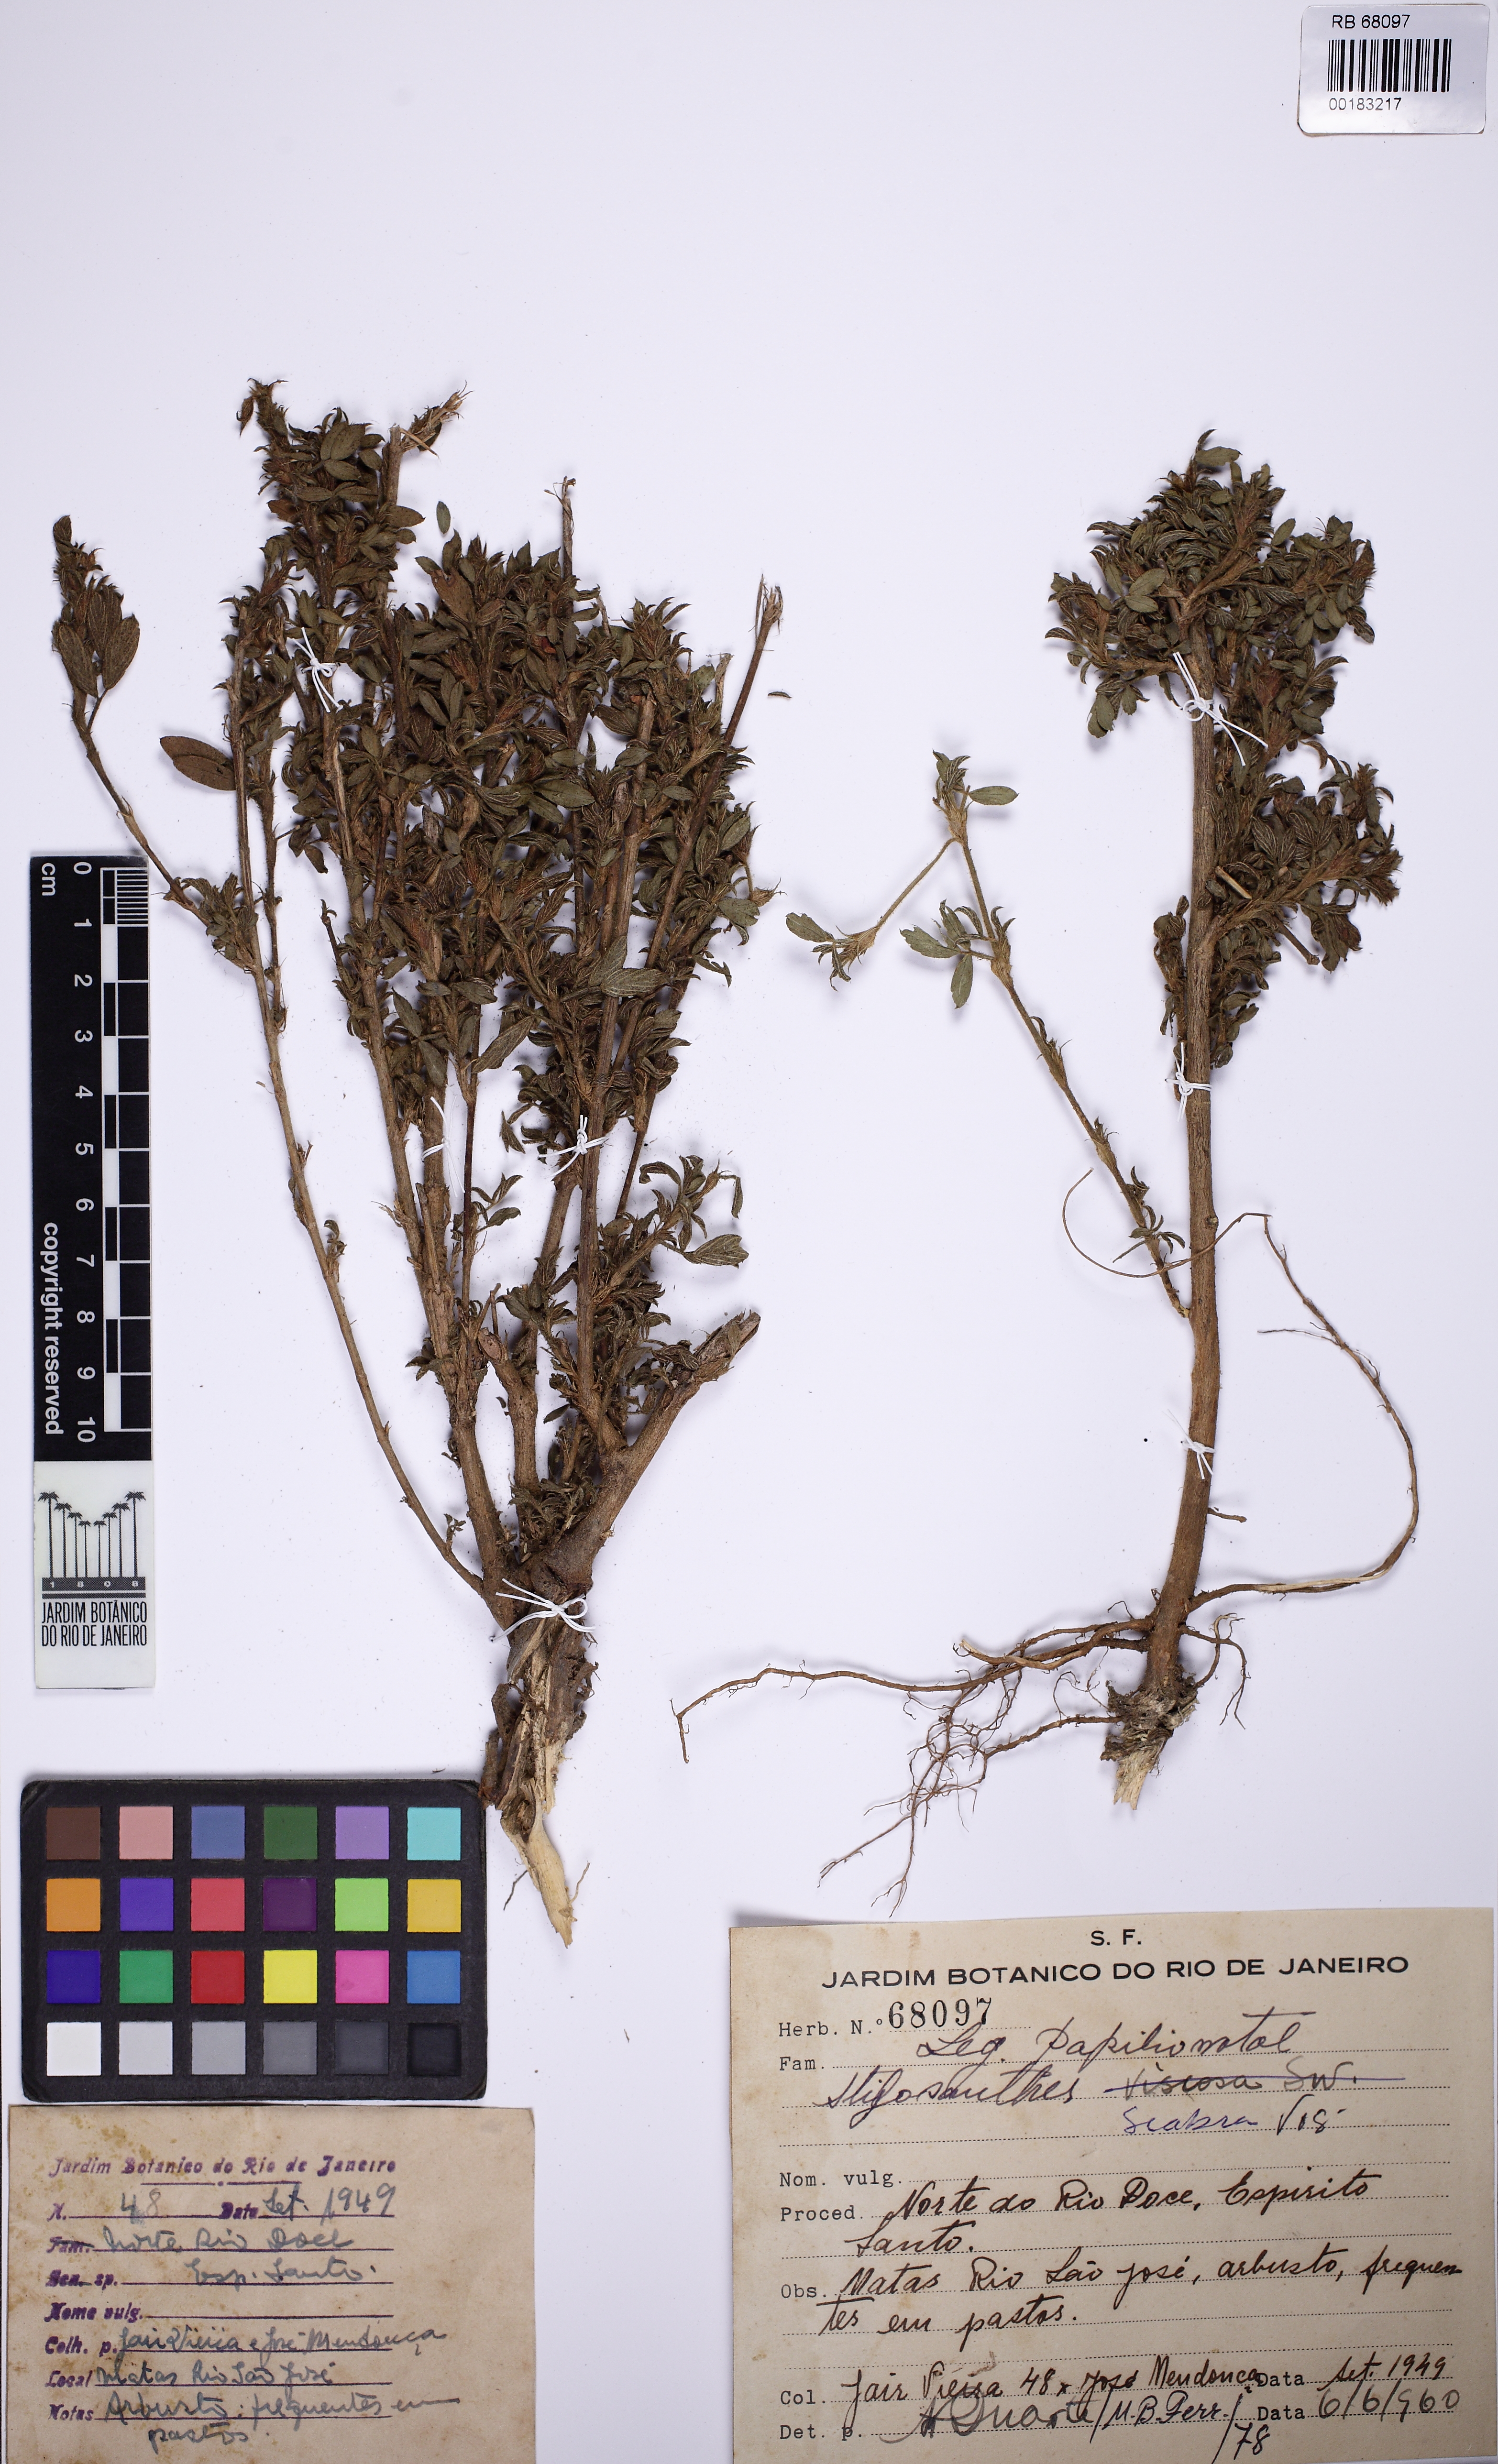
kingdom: Plantae
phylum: Tracheophyta
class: Magnoliopsida
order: Fabales
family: Fabaceae
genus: Stylosanthes
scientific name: Stylosanthes scabra
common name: Pencilflower
